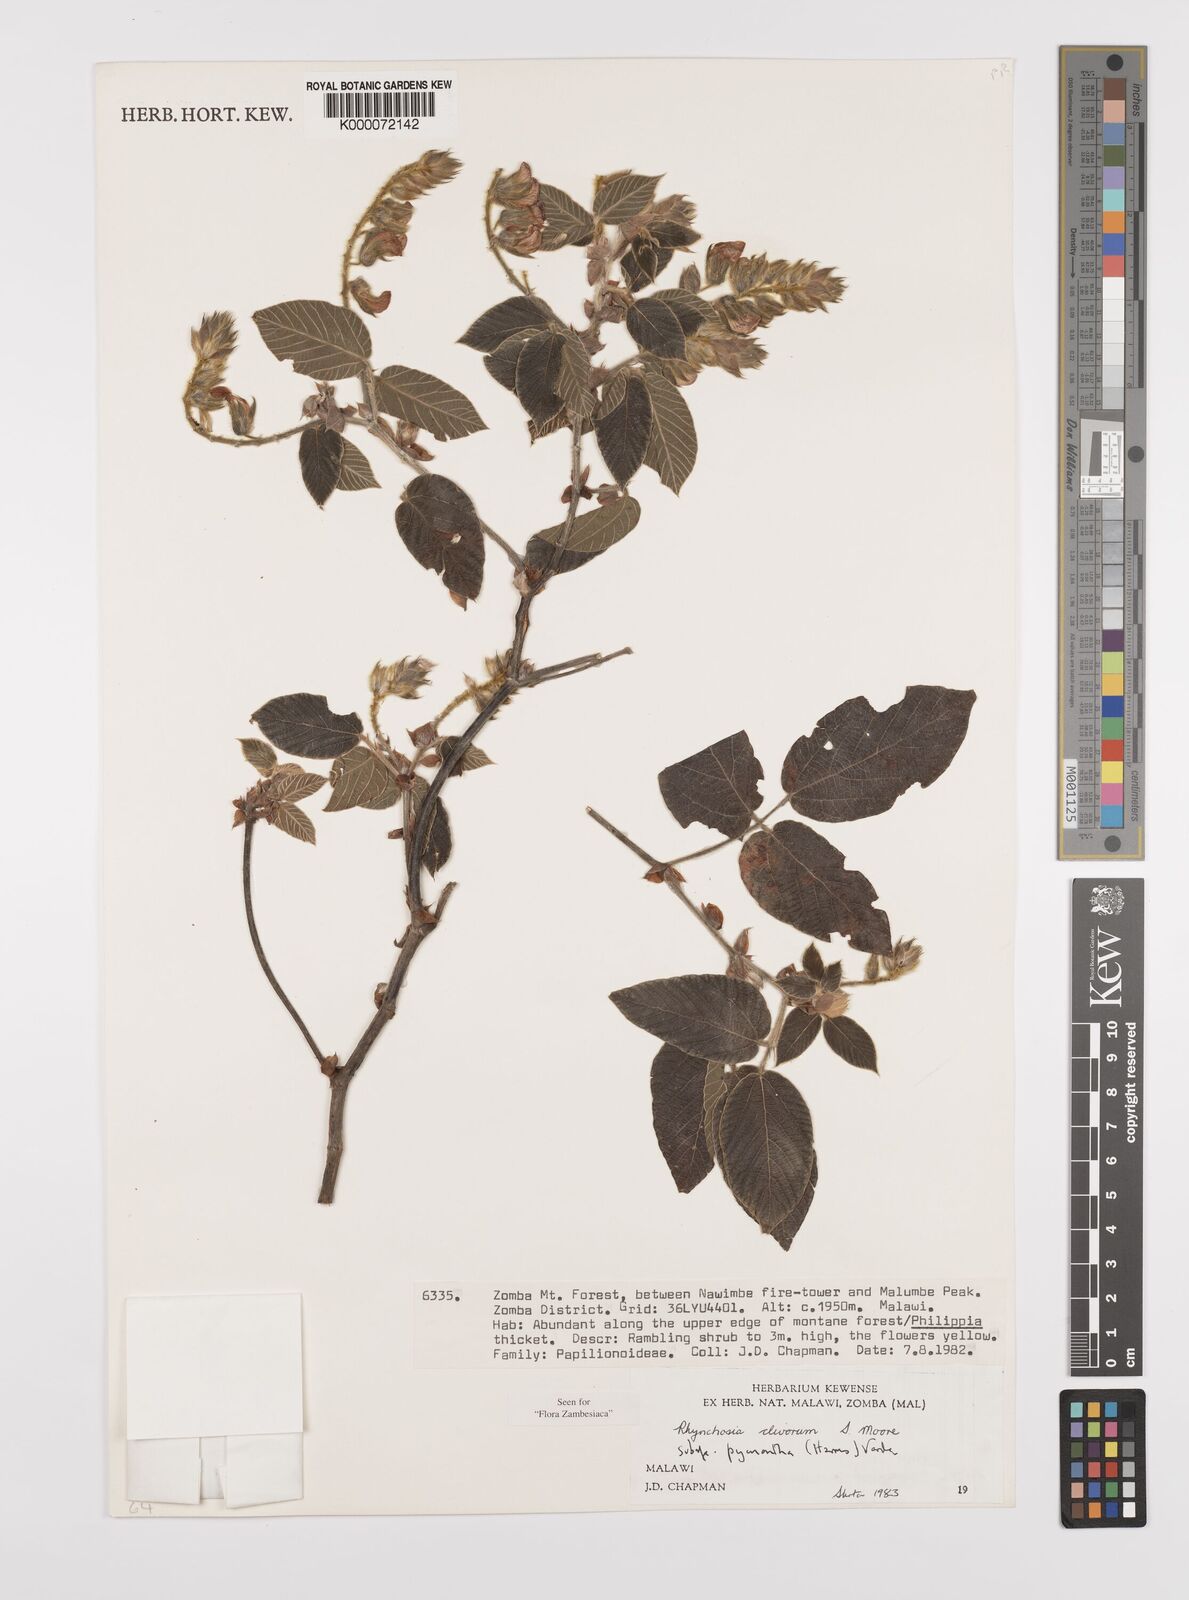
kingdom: Plantae
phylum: Tracheophyta
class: Magnoliopsida
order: Fabales
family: Fabaceae
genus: Rhynchosia
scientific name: Rhynchosia clivorum
